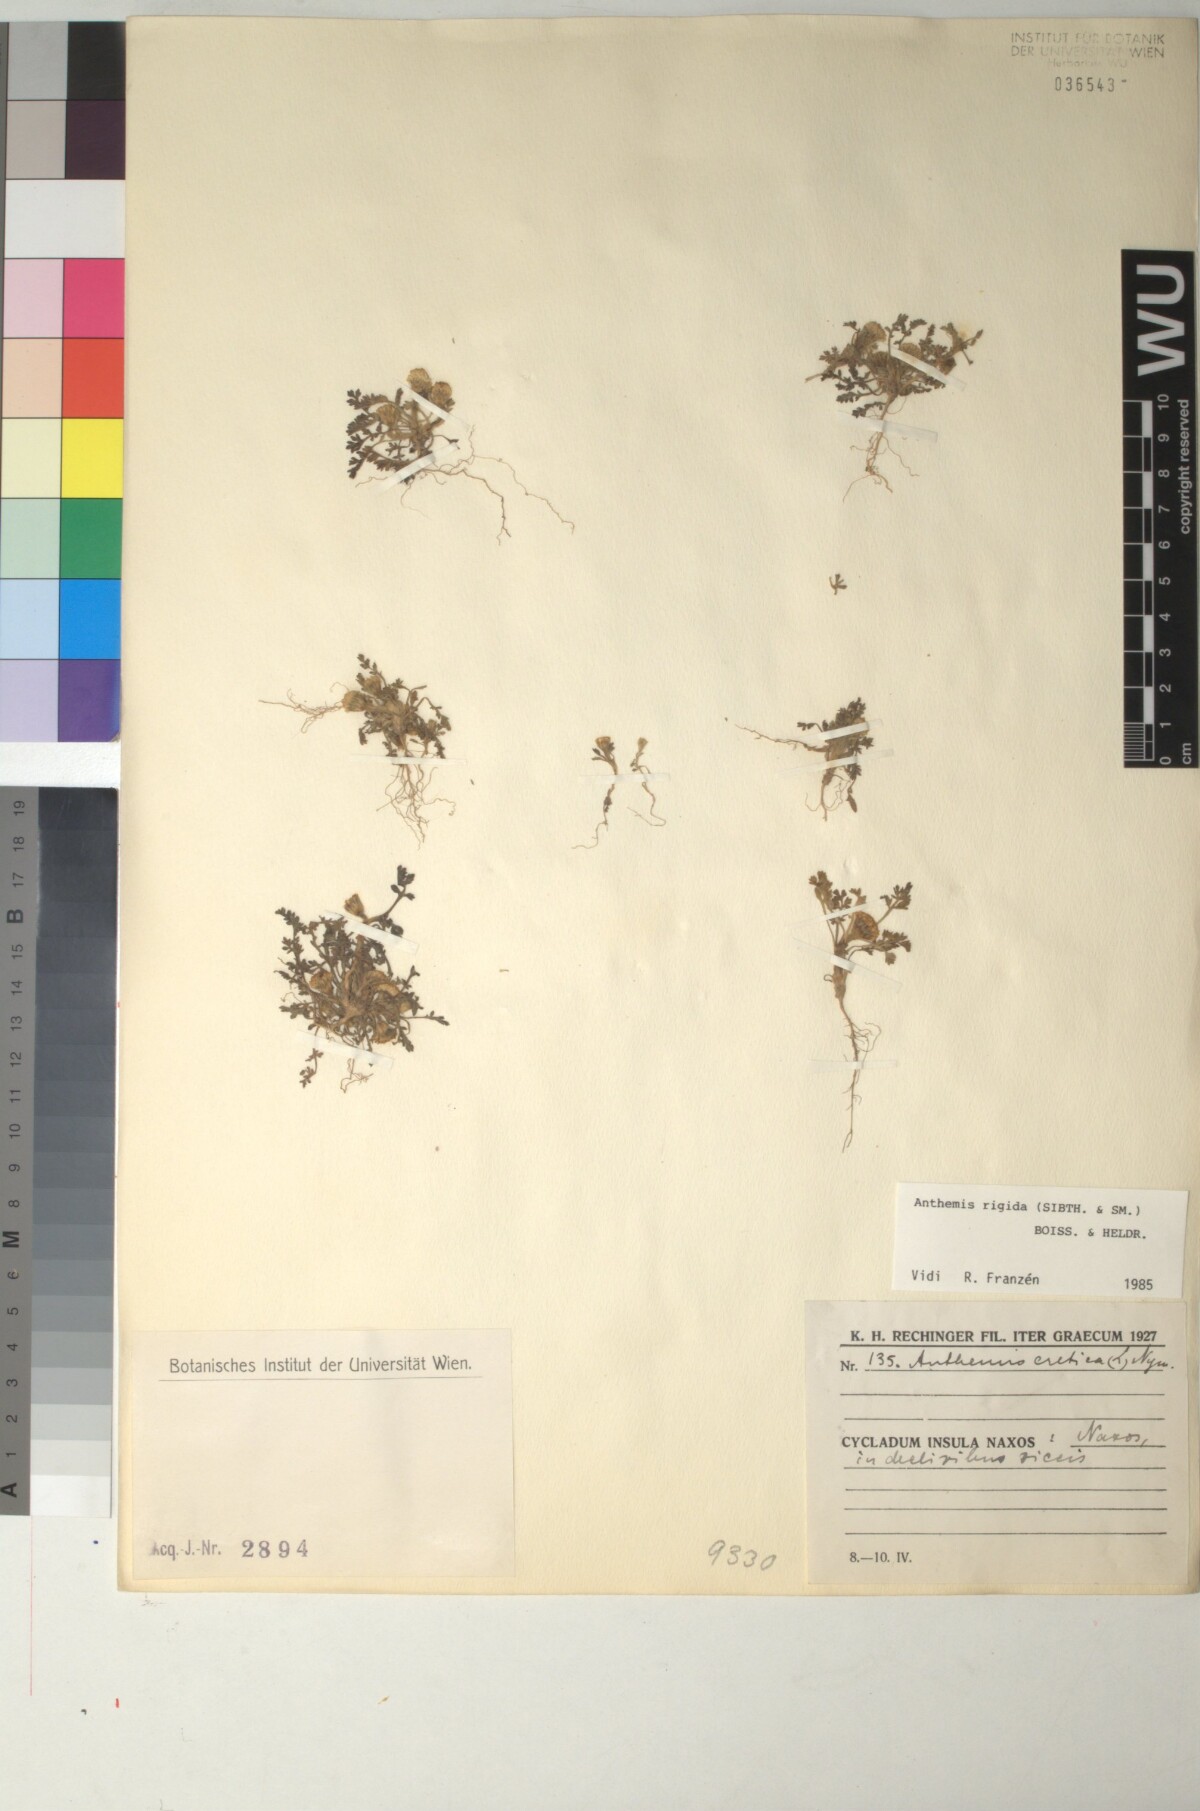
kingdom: Plantae
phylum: Tracheophyta
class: Magnoliopsida
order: Asterales
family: Asteraceae
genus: Anthemis
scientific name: Anthemis rigida
